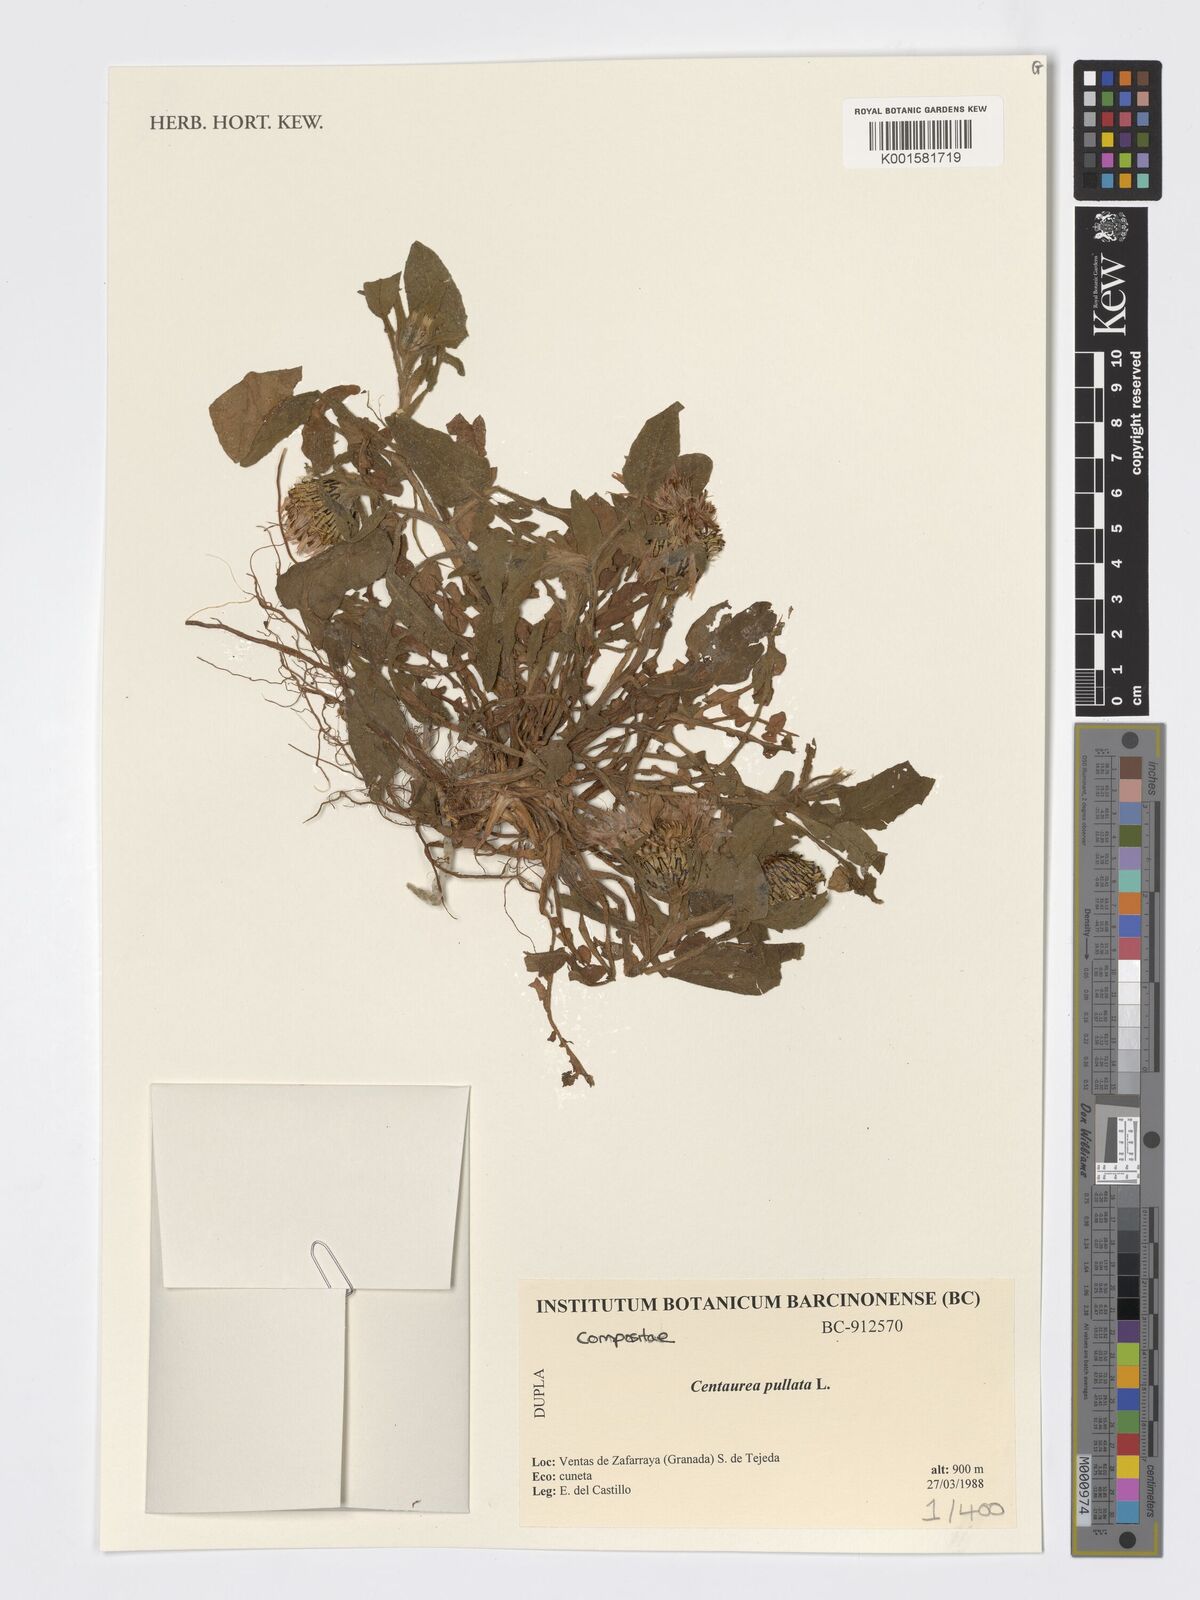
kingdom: Plantae
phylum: Tracheophyta
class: Magnoliopsida
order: Asterales
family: Asteraceae
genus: Centaurea
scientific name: Centaurea pullata
